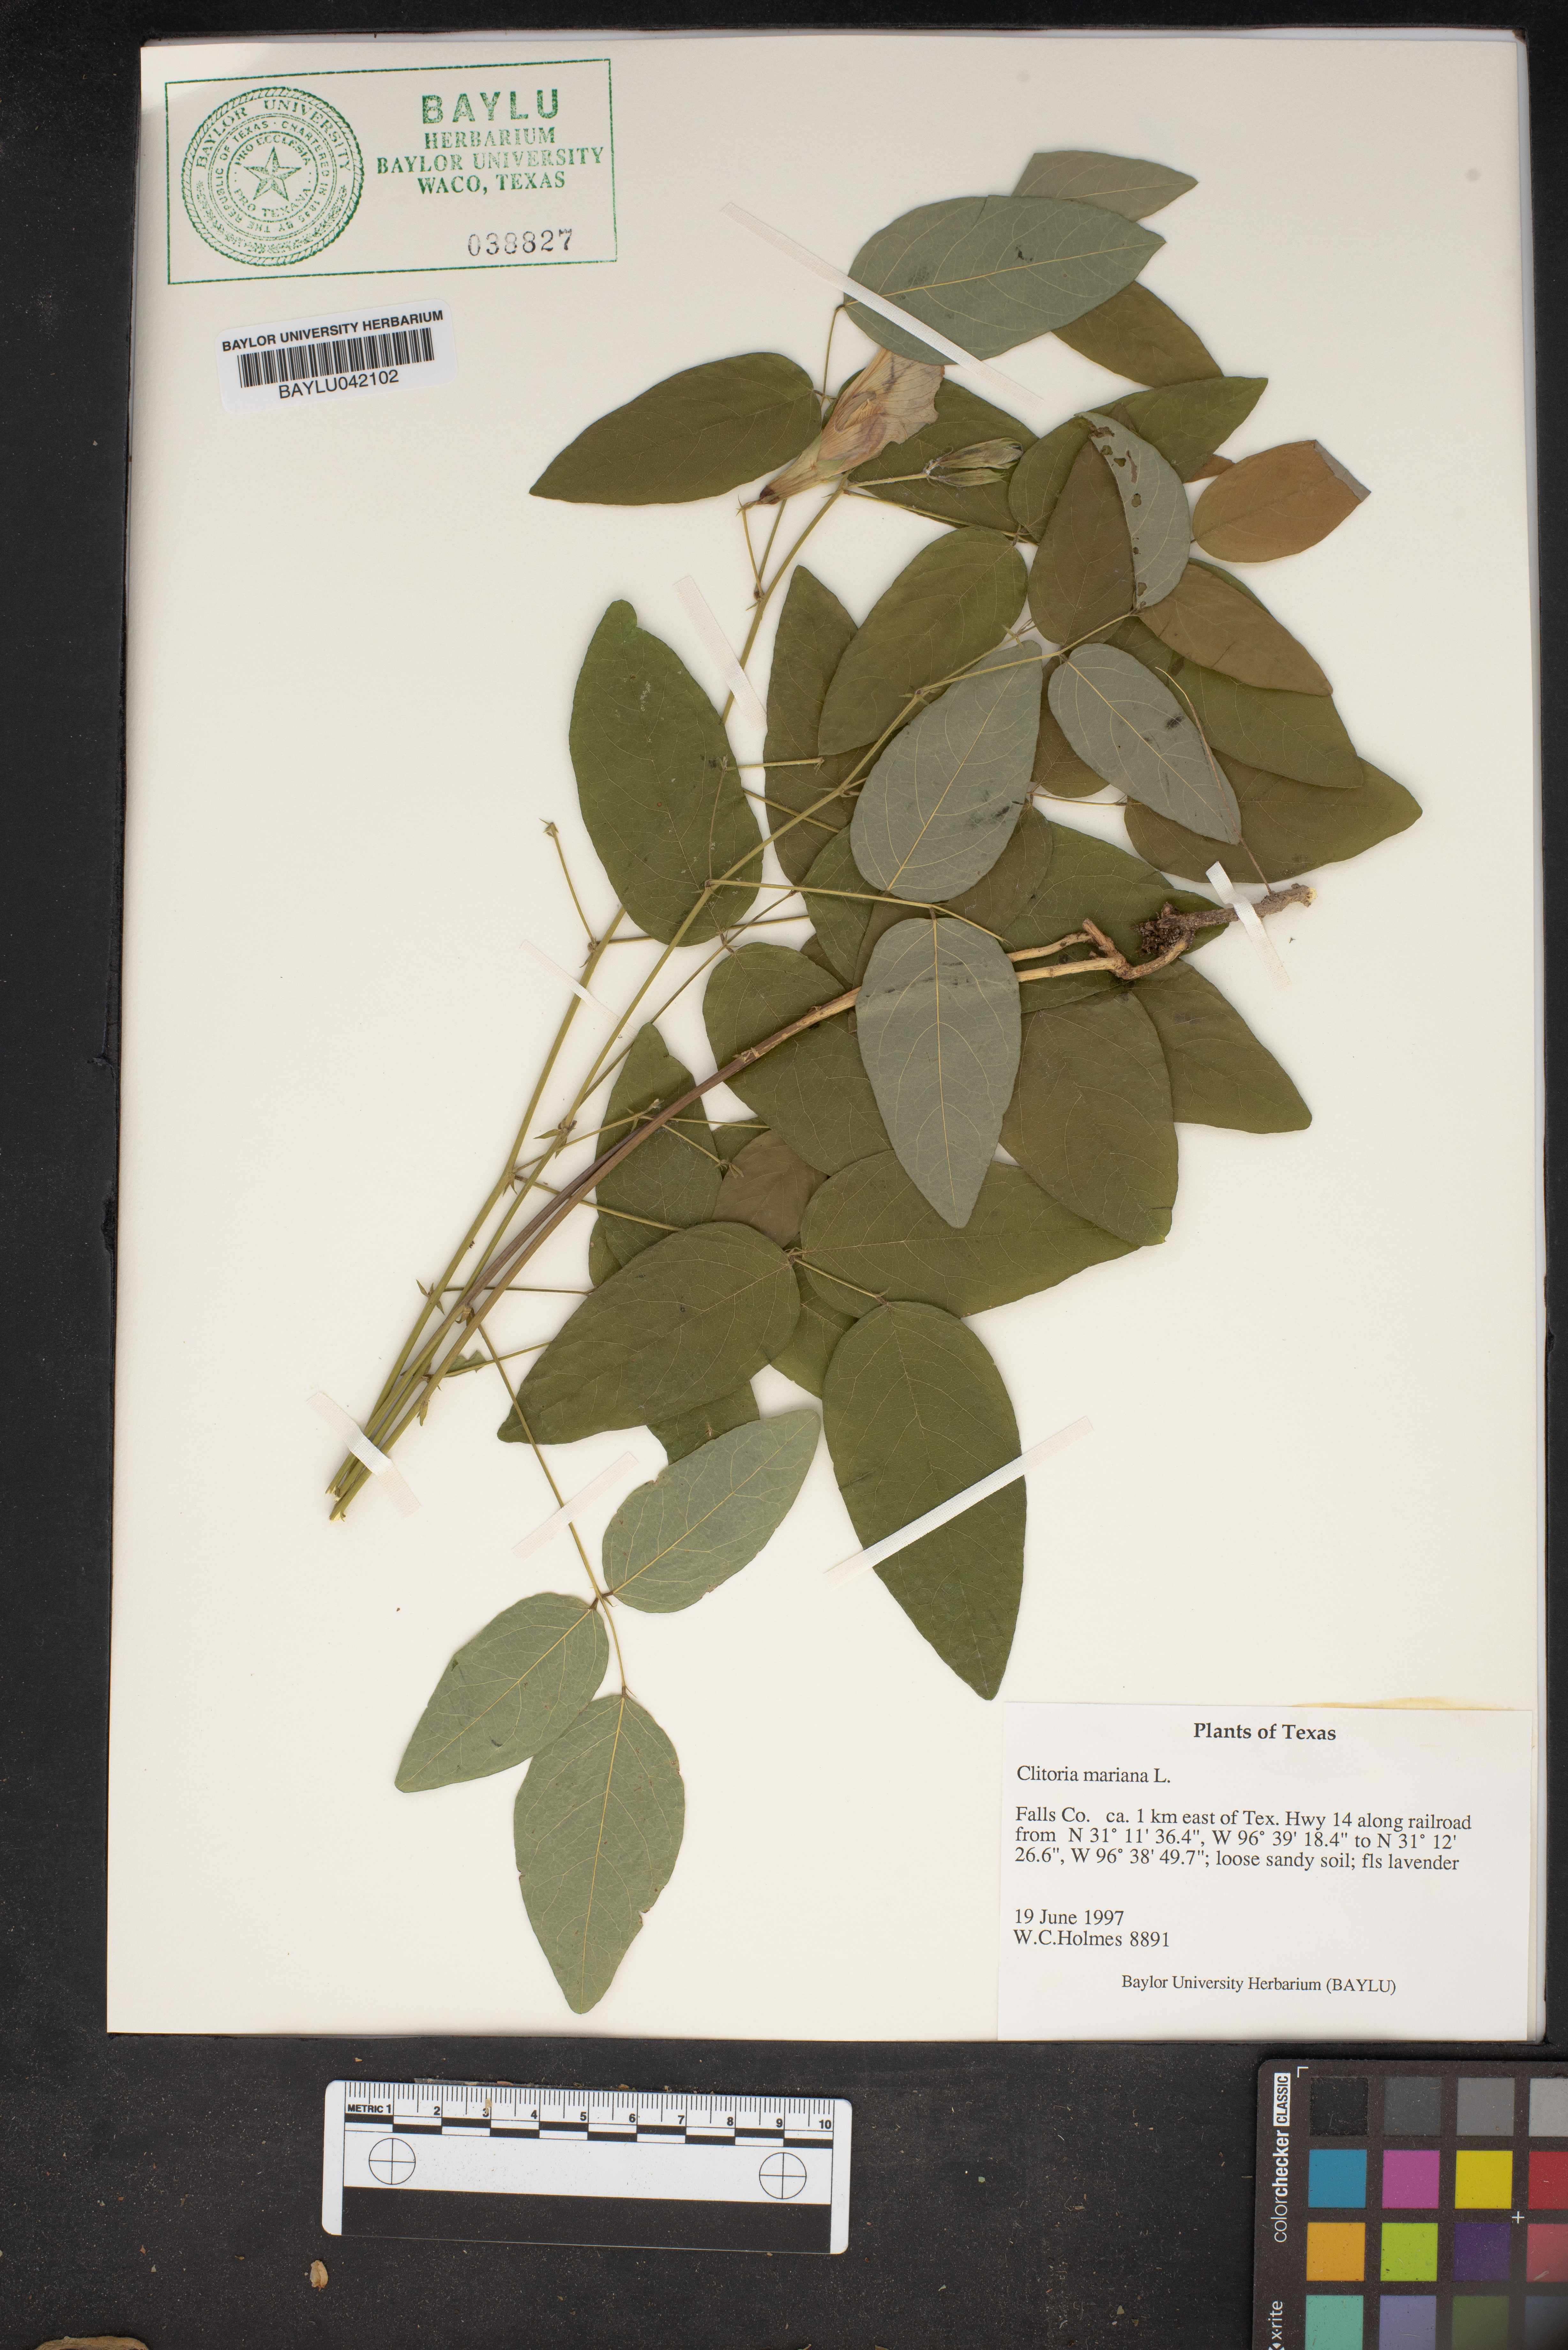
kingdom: Plantae
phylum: Tracheophyta
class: Magnoliopsida
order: Fabales
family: Fabaceae
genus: Clitoria
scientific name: Clitoria mariana
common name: Butterfly-pea
